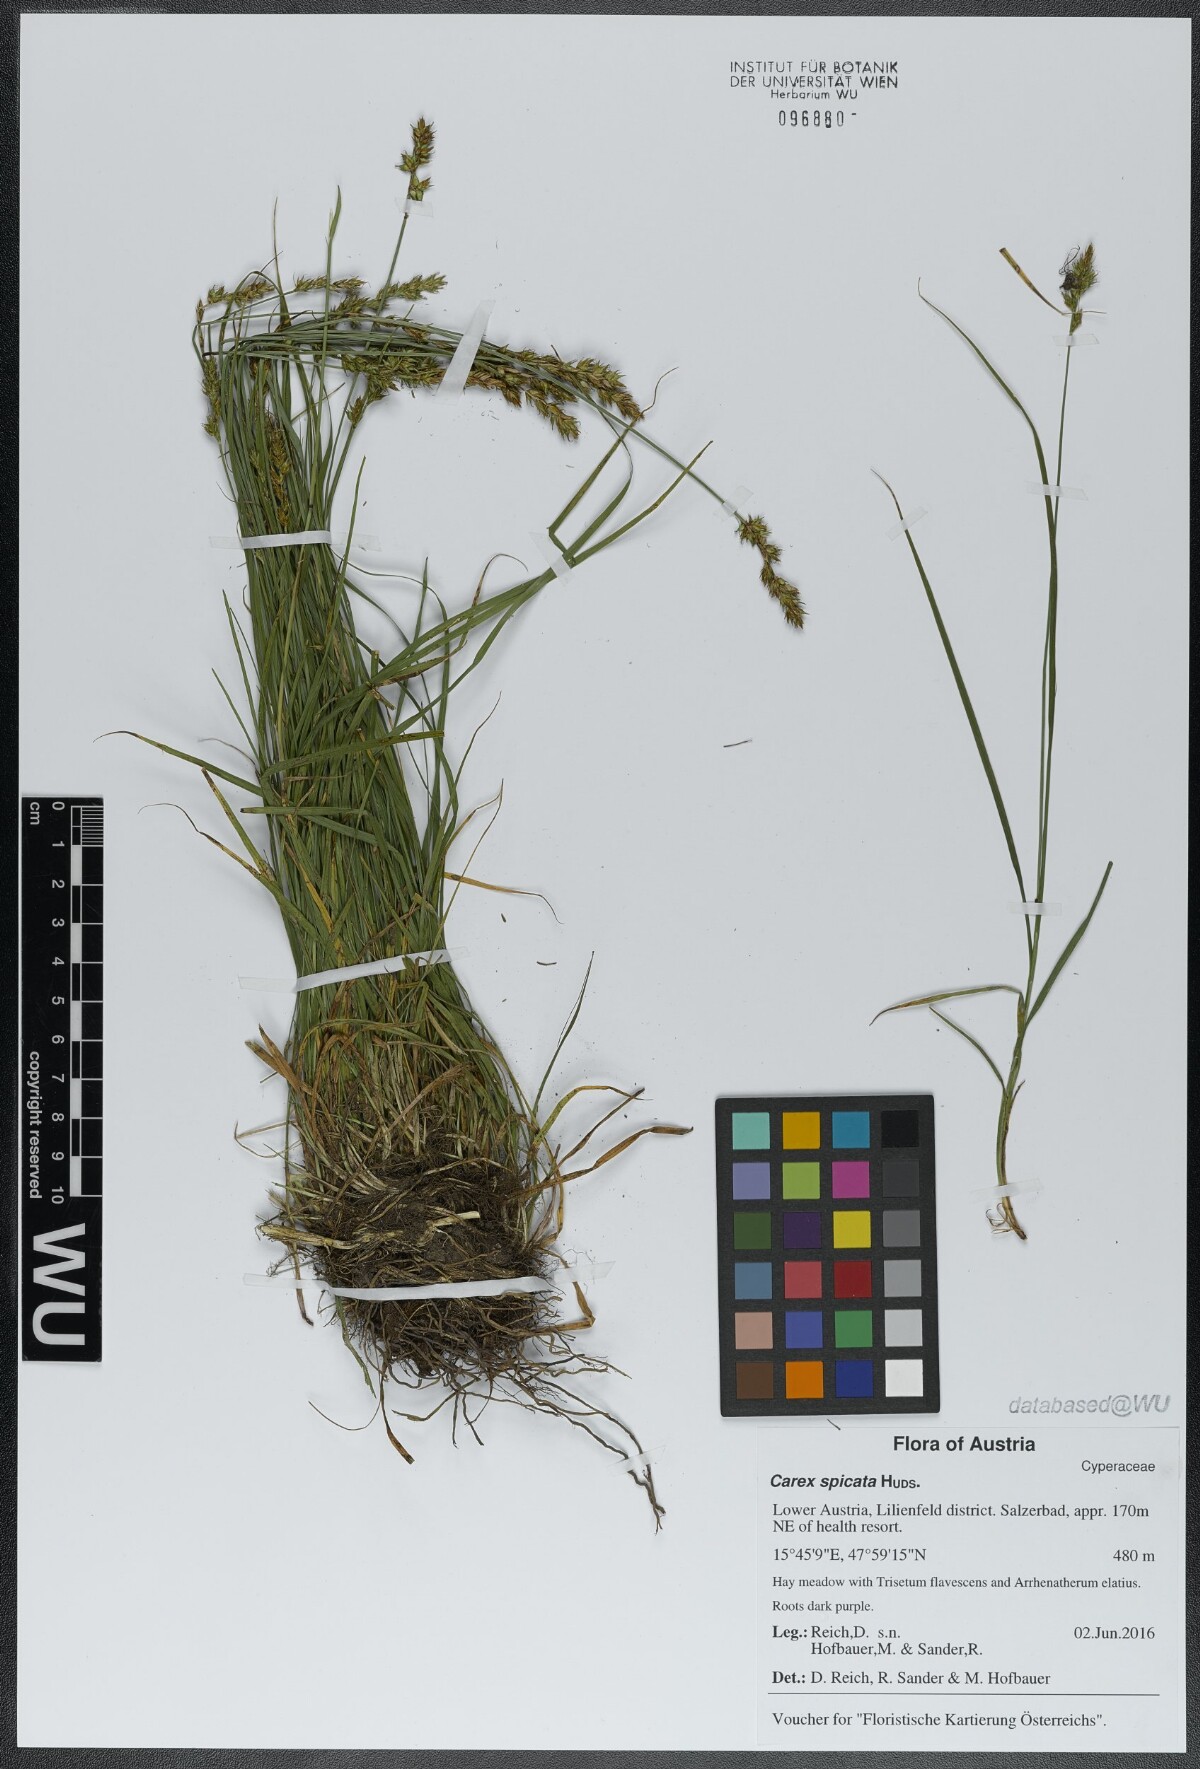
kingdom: Plantae
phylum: Tracheophyta
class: Liliopsida
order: Poales
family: Cyperaceae
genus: Carex
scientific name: Carex spicata
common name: Spiked sedge
